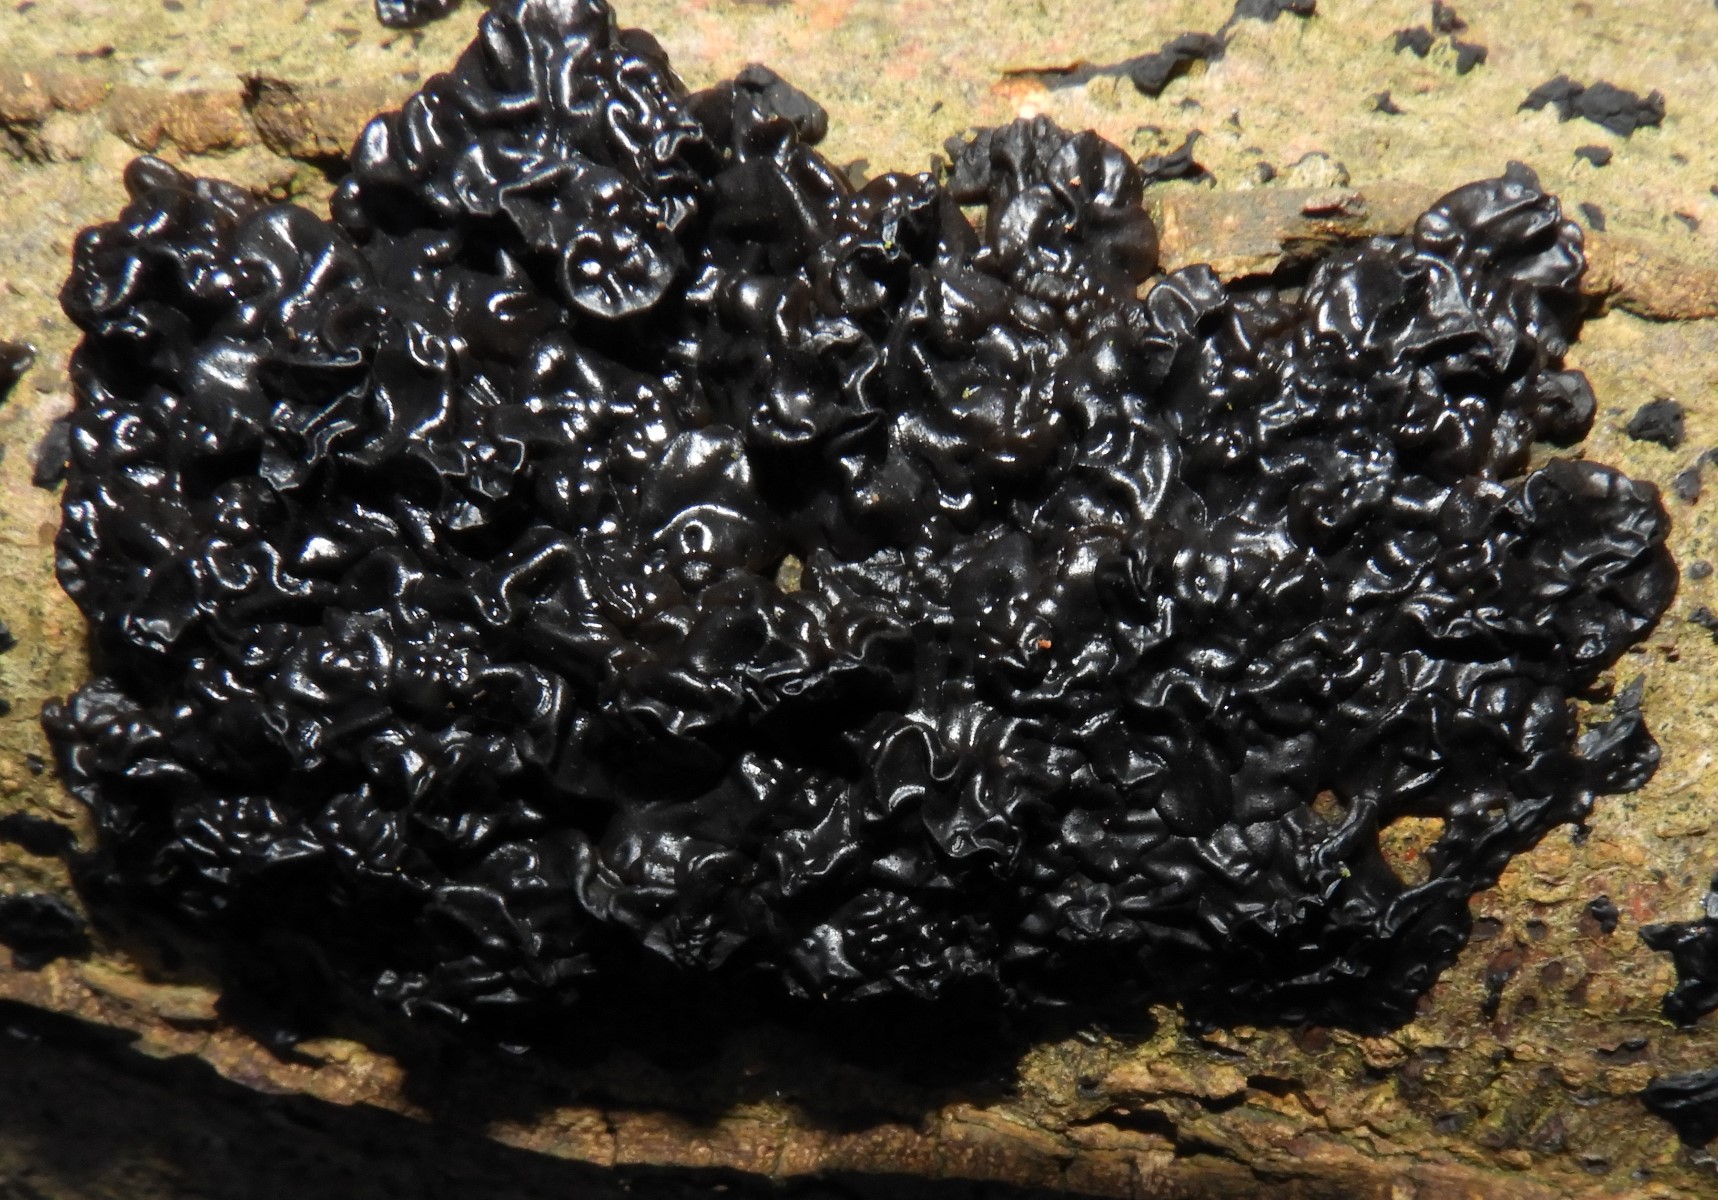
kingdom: Fungi
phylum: Basidiomycota
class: Agaricomycetes
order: Auriculariales
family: Auriculariaceae
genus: Exidia
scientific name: Exidia nigricans
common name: almindelig bævretop
